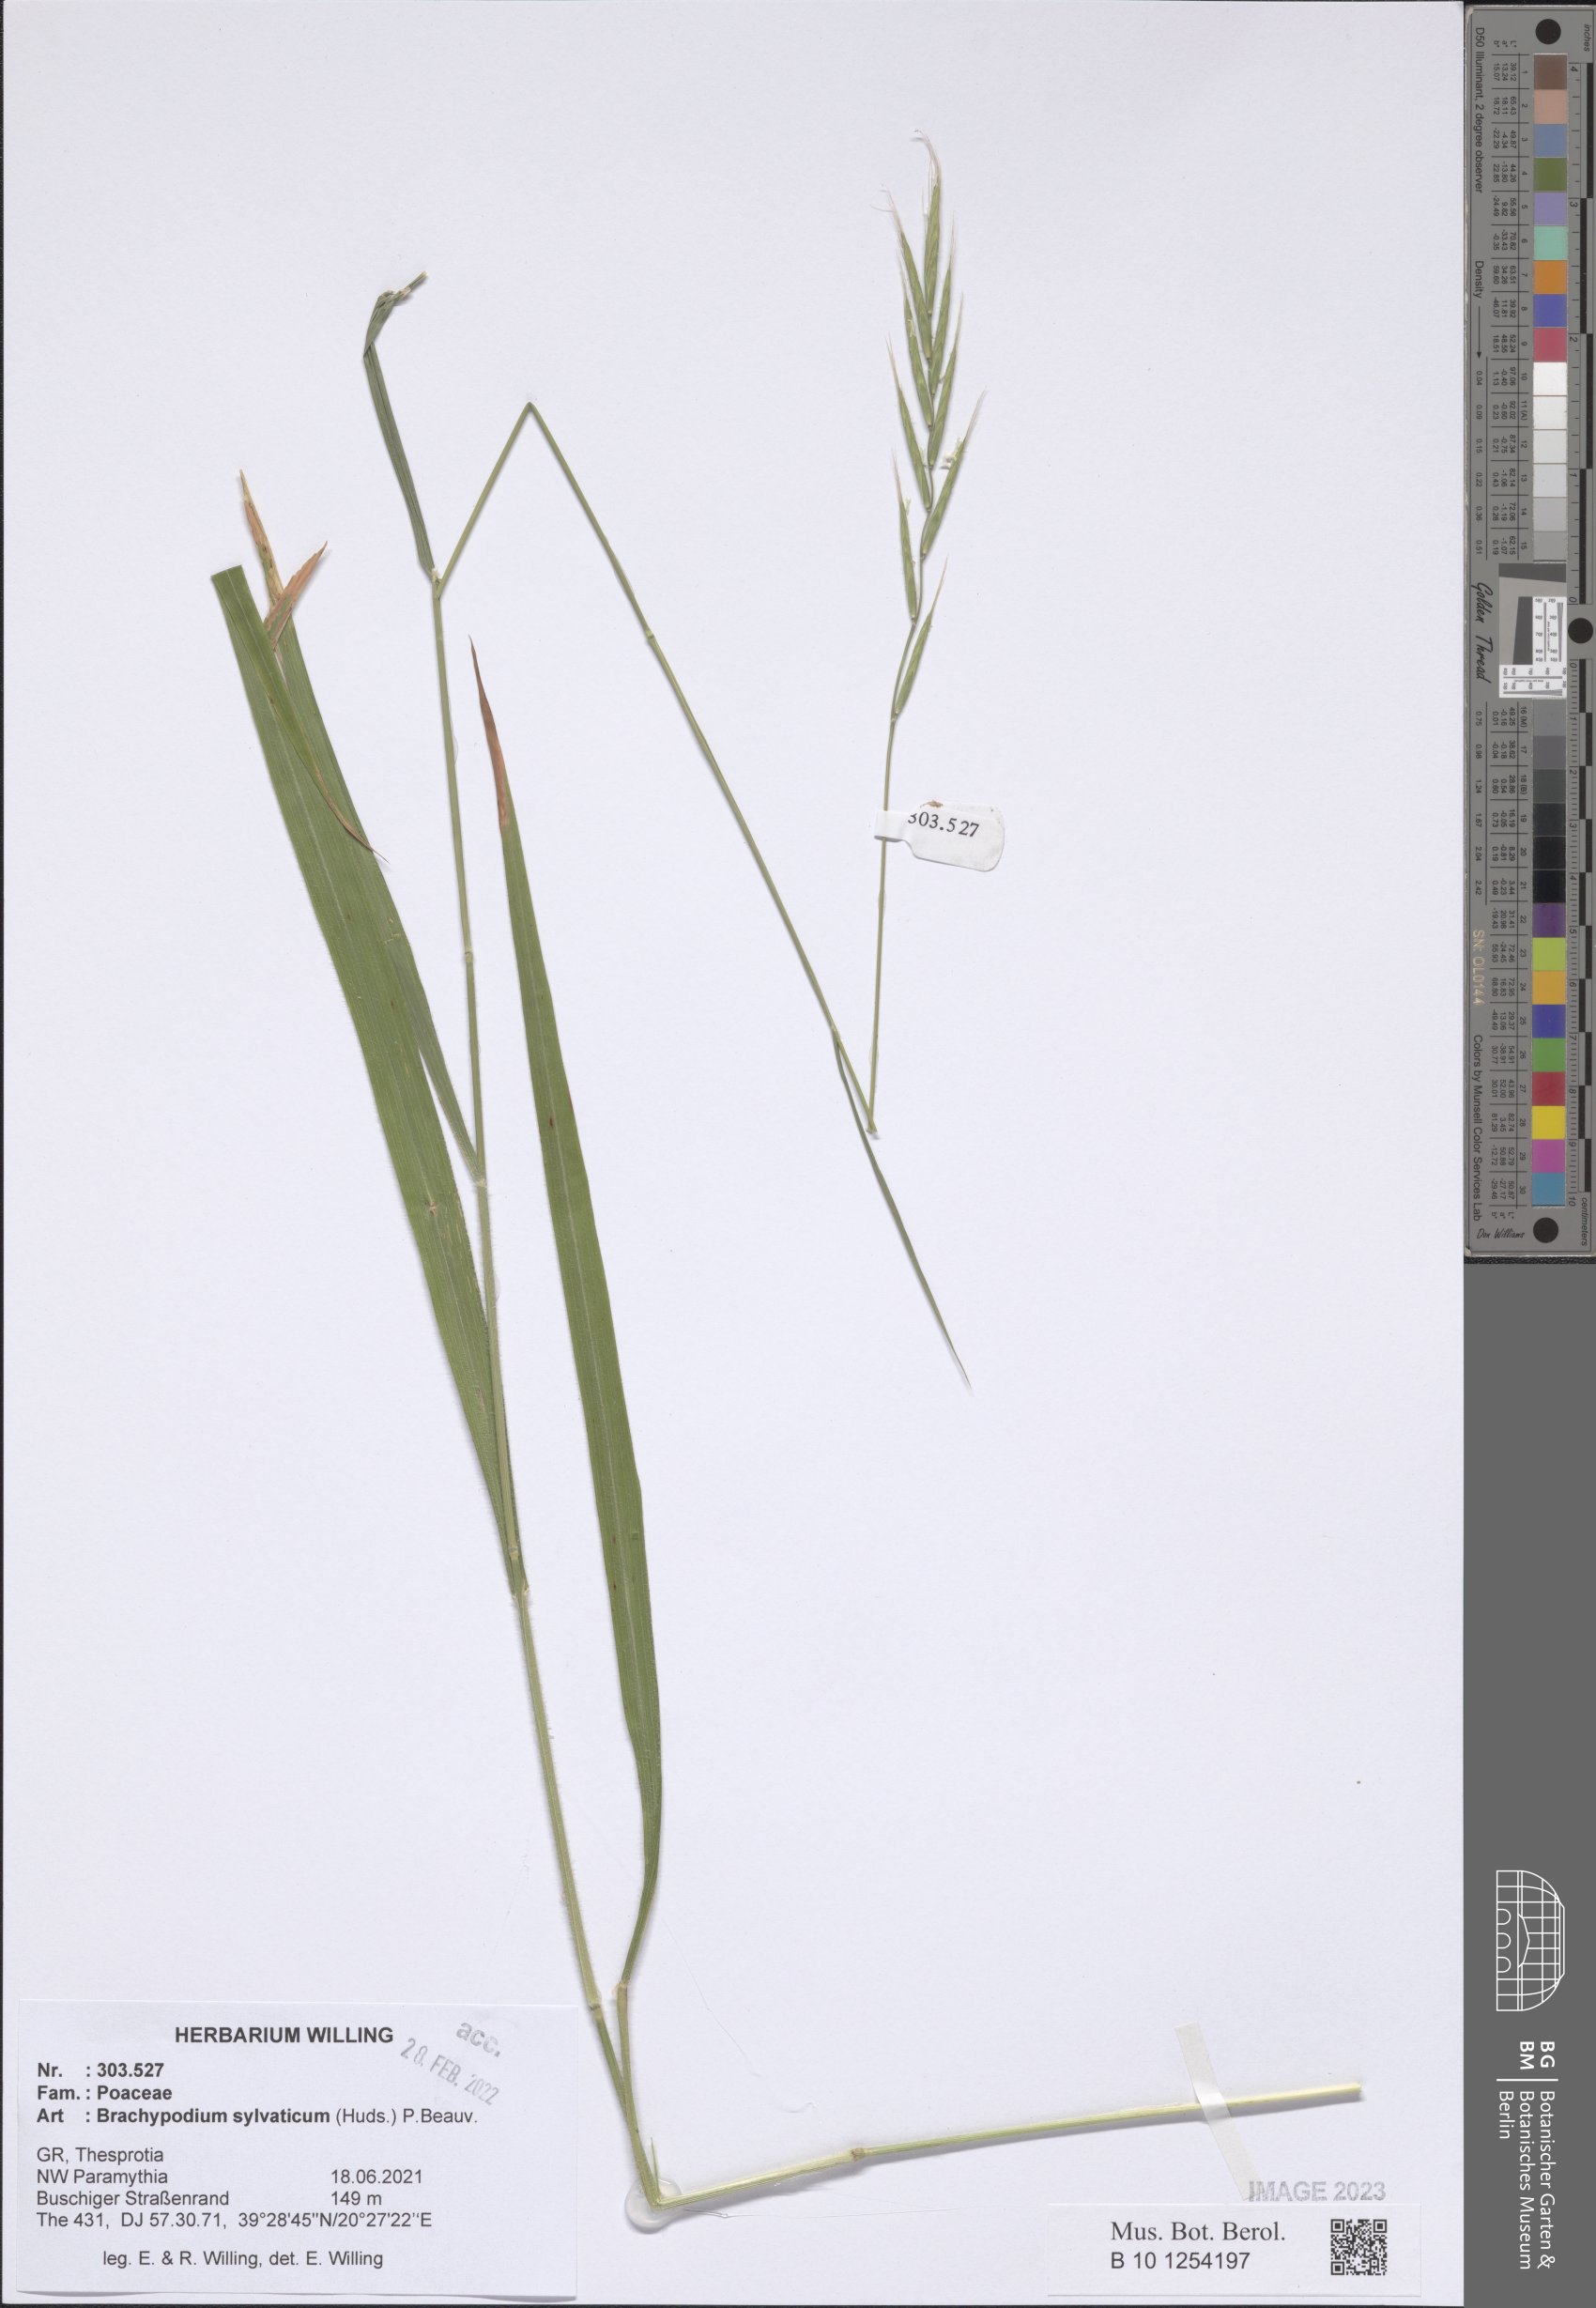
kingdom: Plantae
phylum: Tracheophyta
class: Liliopsida
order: Poales
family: Poaceae
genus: Brachypodium
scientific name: Brachypodium sylvaticum
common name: False-brome
